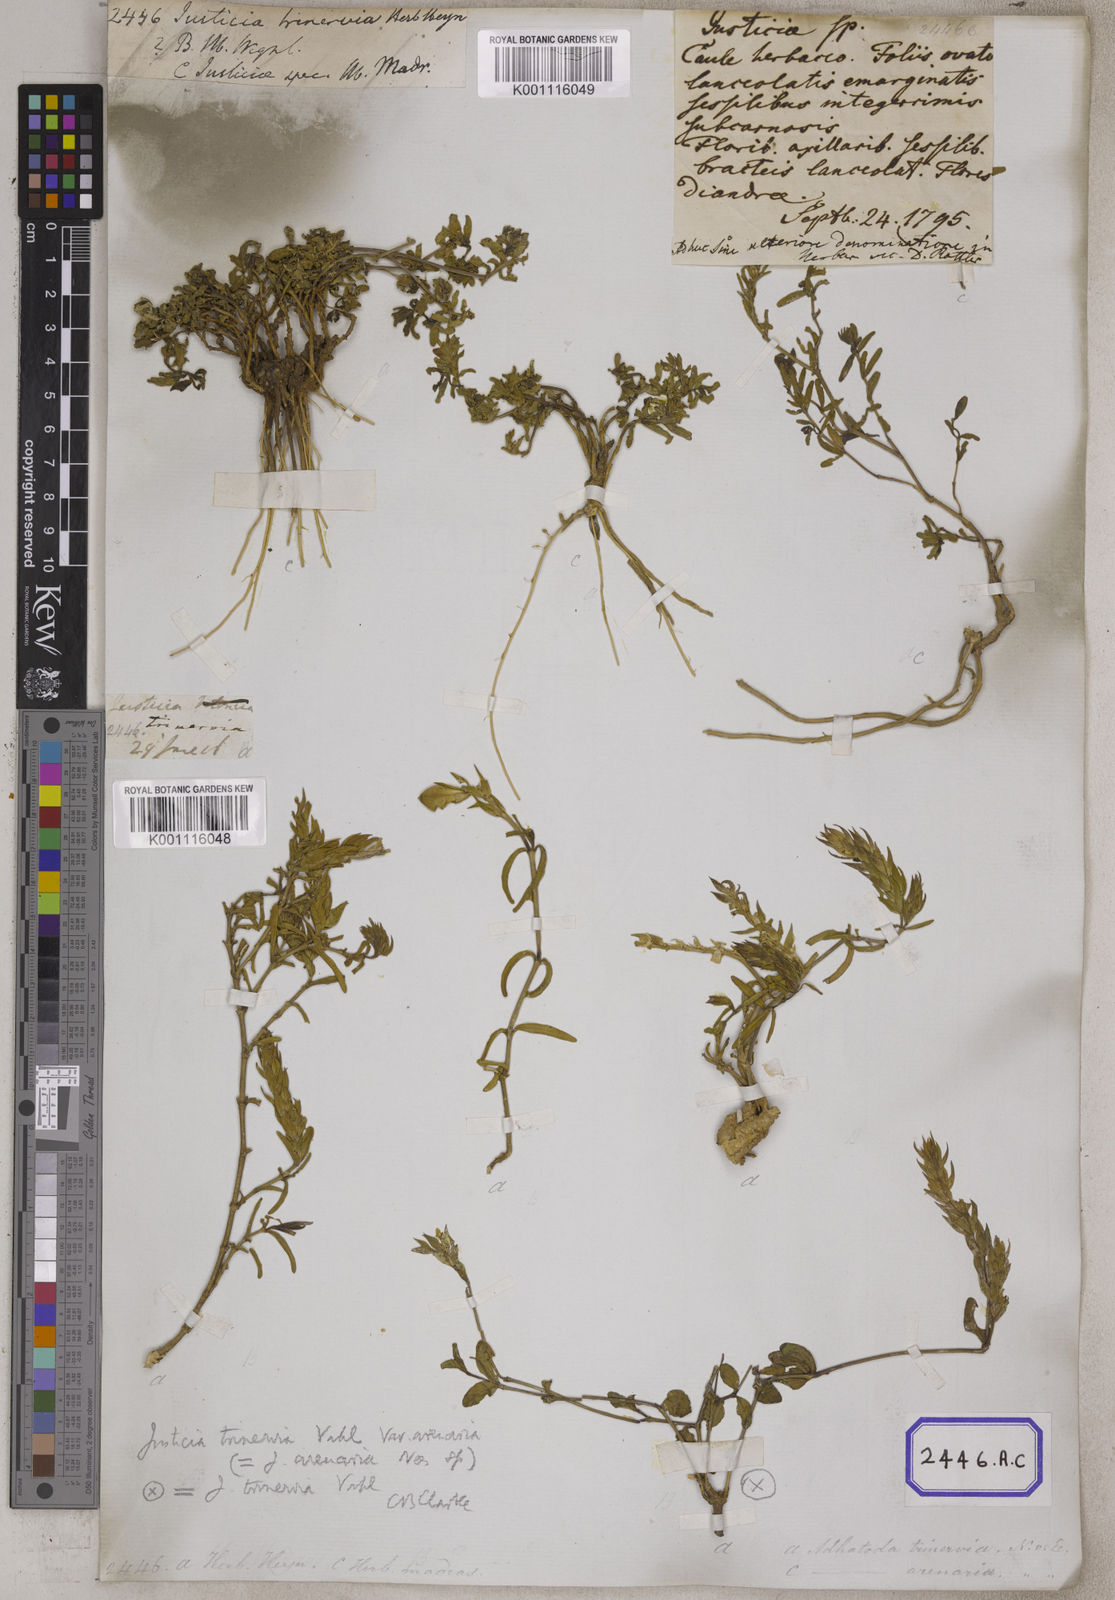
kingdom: Plantae
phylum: Tracheophyta
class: Magnoliopsida
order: Lamiales
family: Acanthaceae
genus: Nicoteba
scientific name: Nicoteba trinervia
